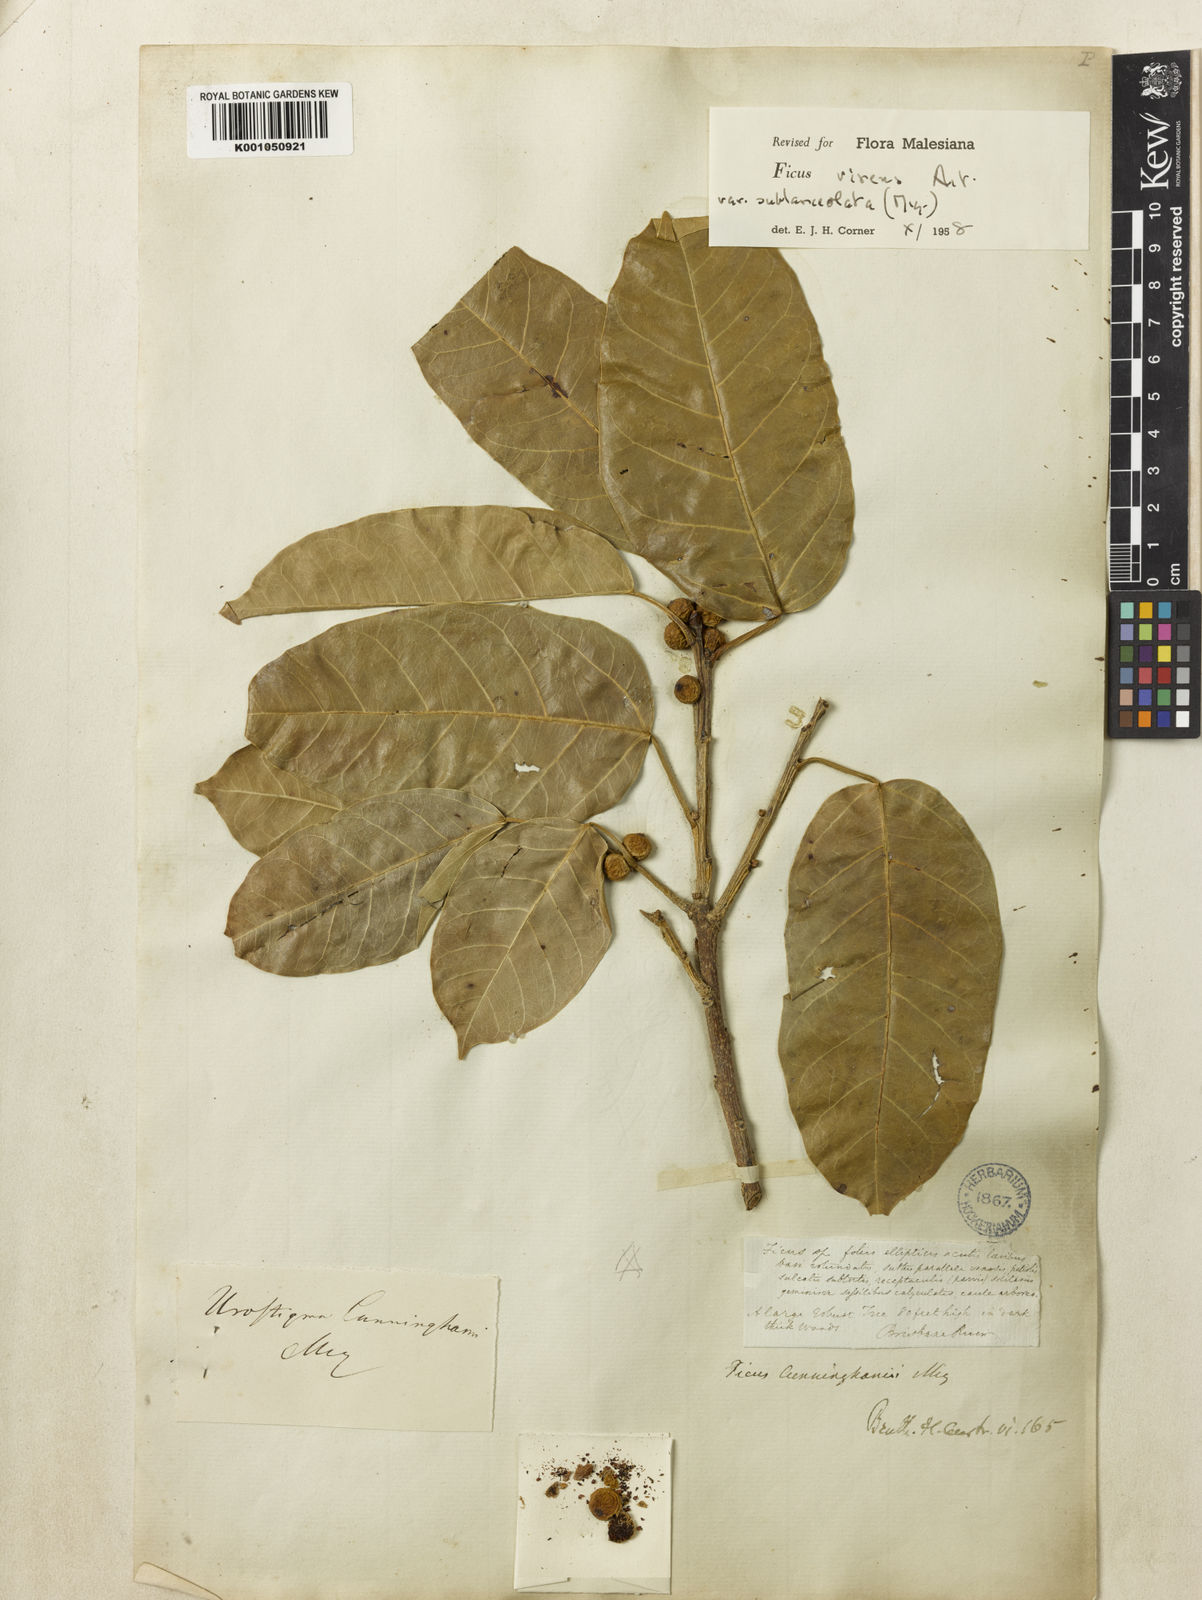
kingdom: Plantae
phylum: Tracheophyta
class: Magnoliopsida
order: Rosales
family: Moraceae
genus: Ficus
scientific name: Ficus virens
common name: Spotted fig
